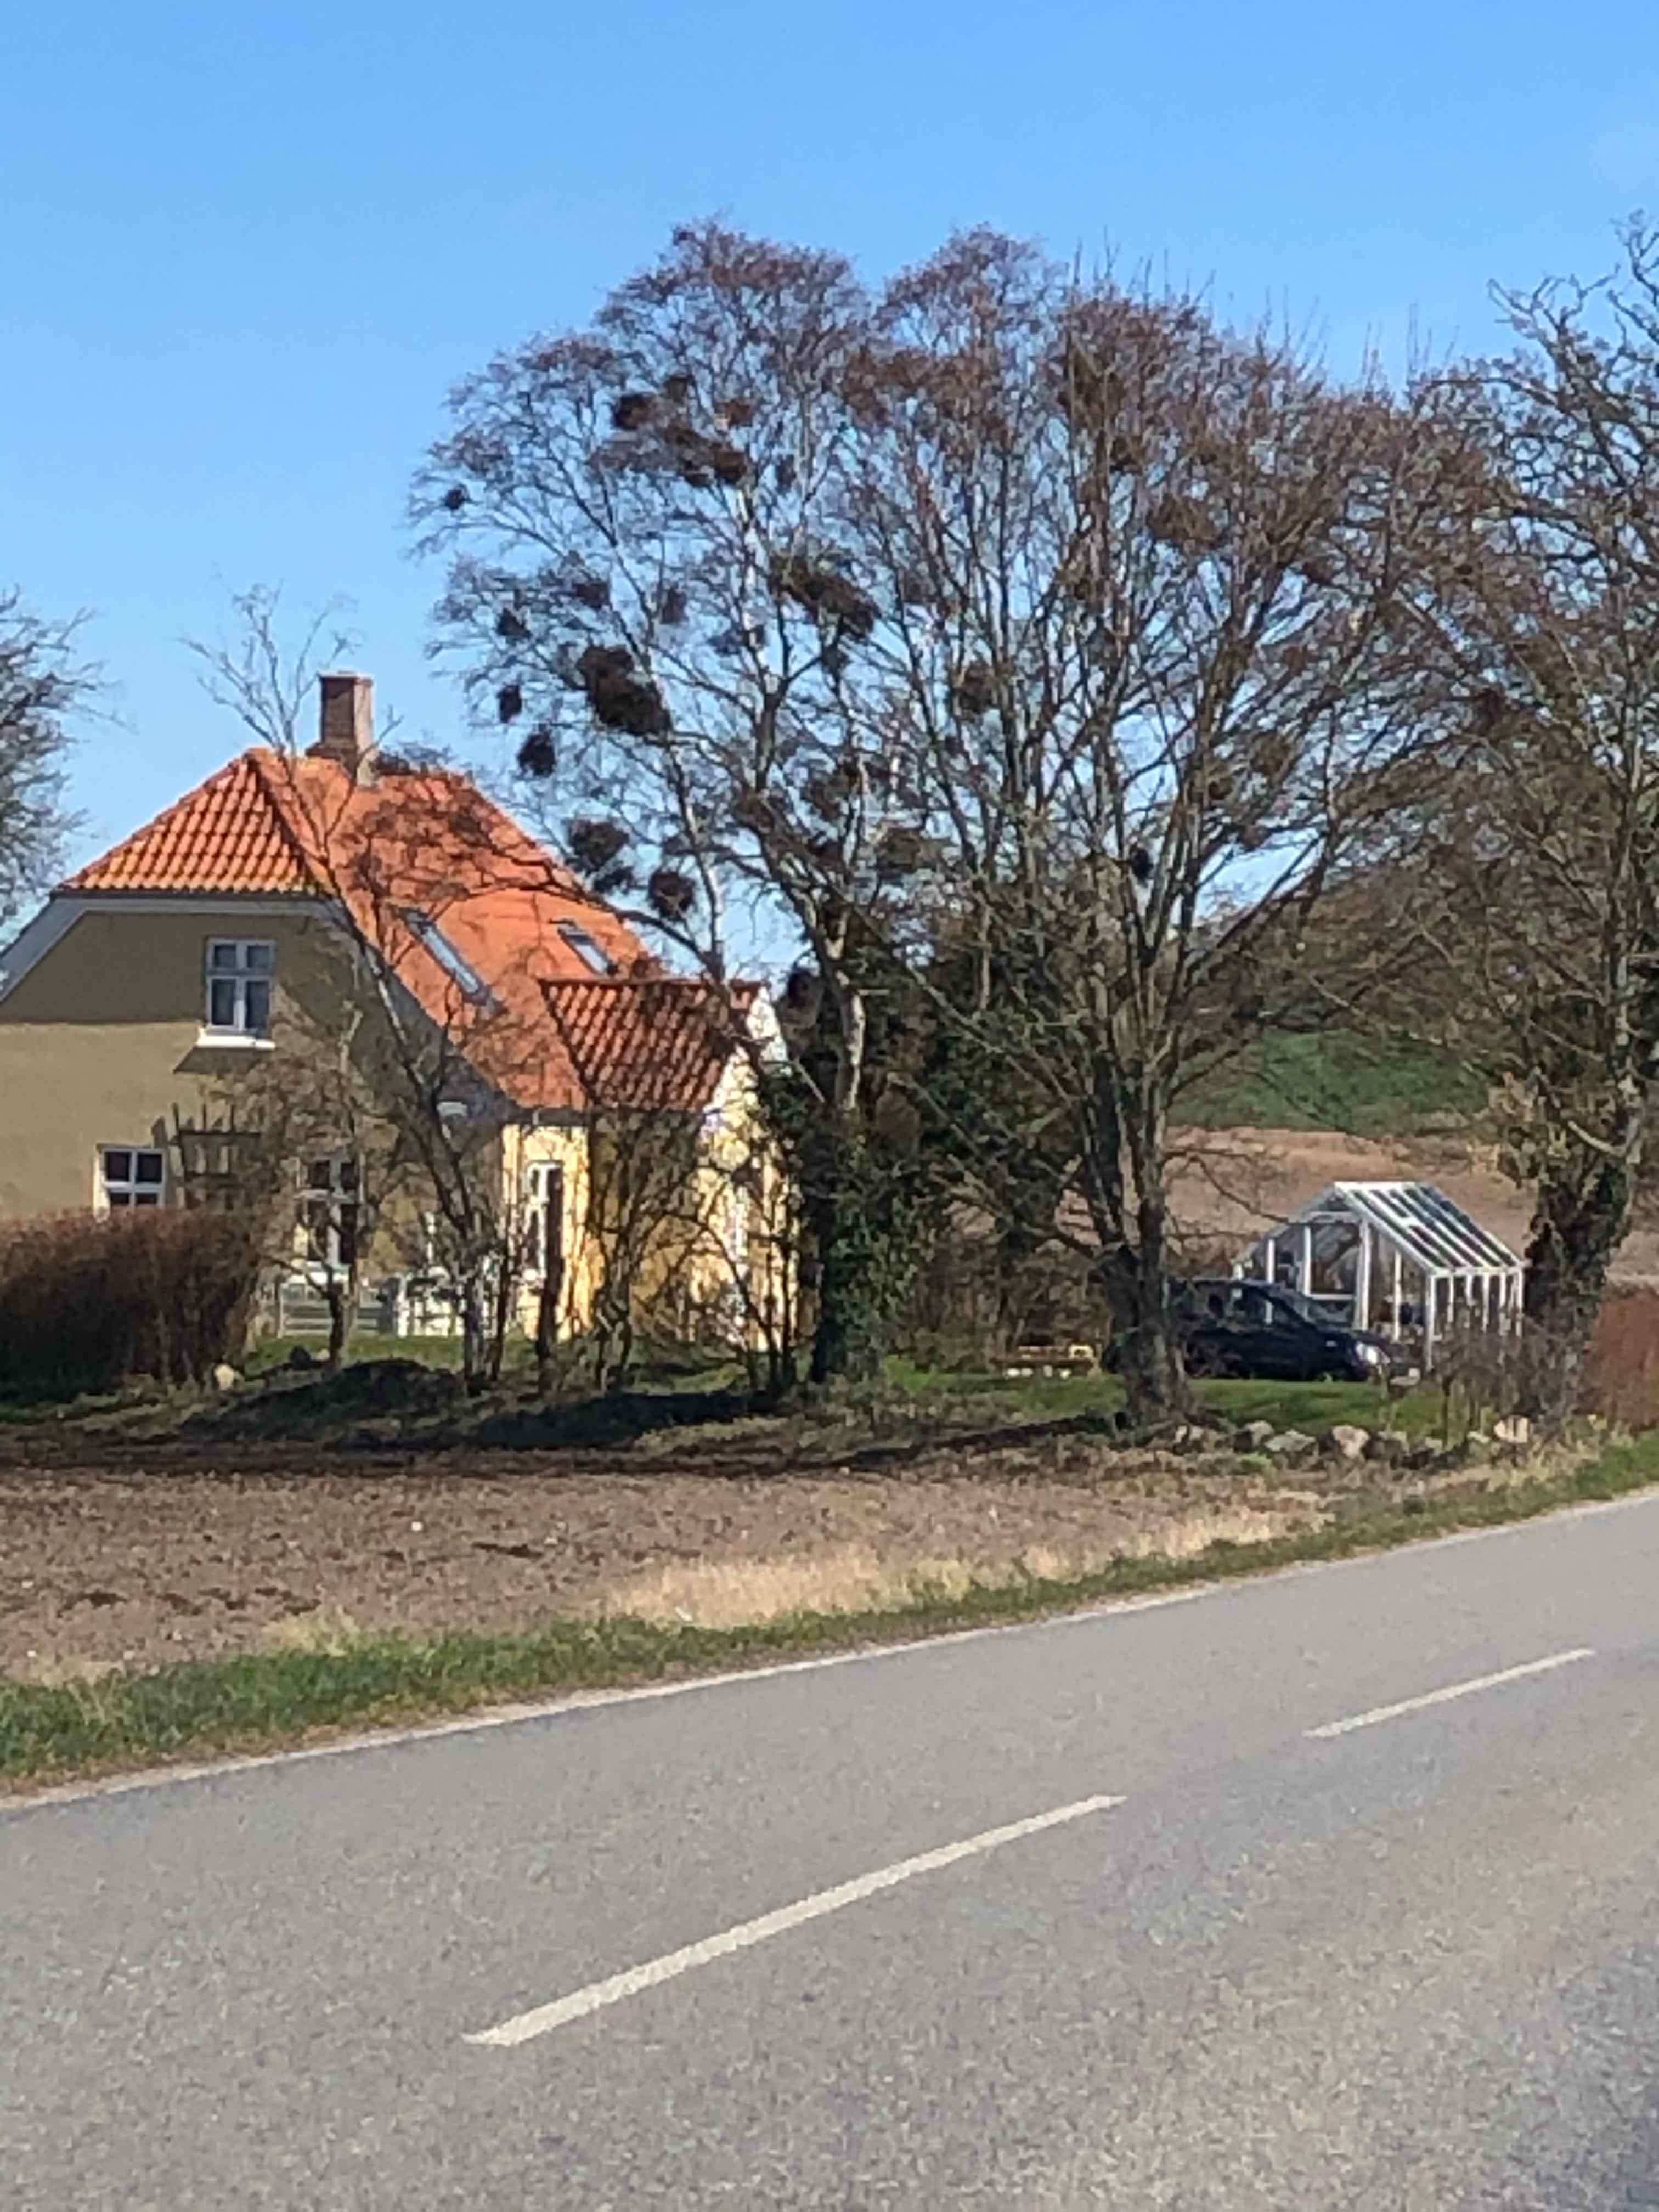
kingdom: Fungi
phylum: Ascomycota
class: Taphrinomycetes
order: Taphrinales
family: Taphrinaceae
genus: Taphrina
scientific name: Taphrina betulina
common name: hekse-sækdug
